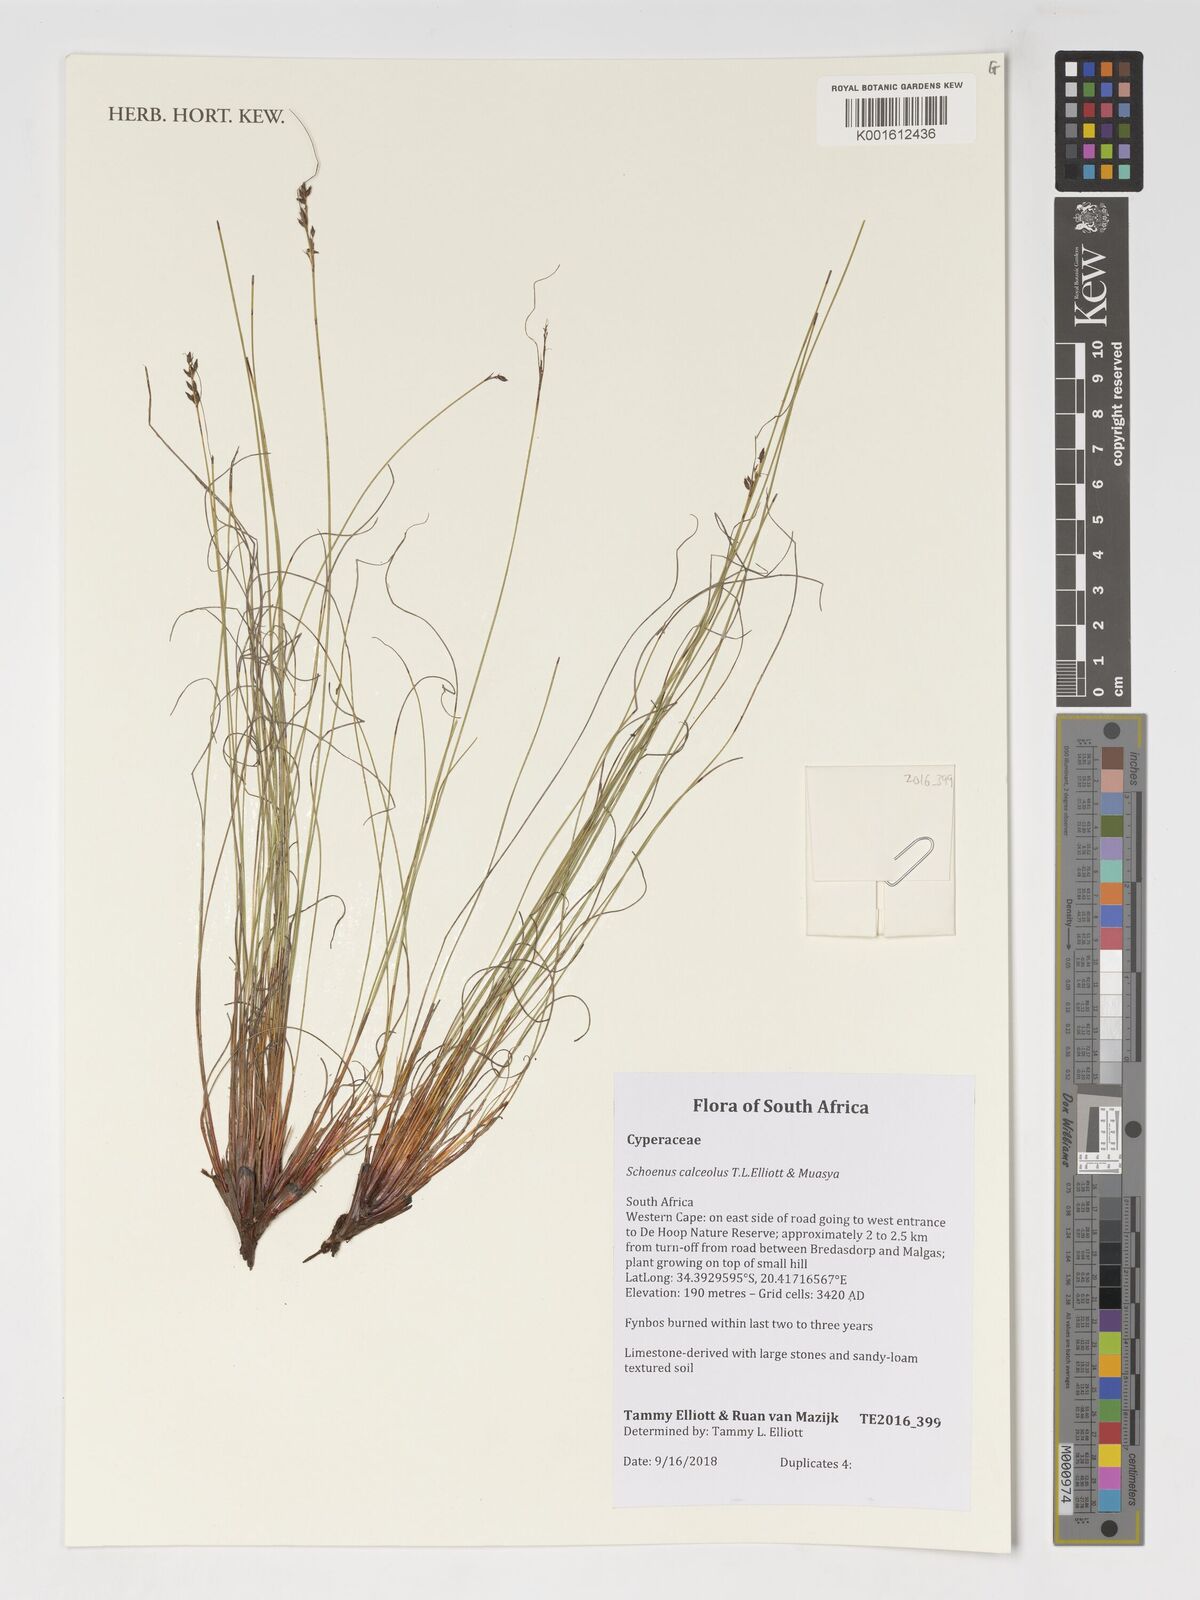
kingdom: Plantae
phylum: Tracheophyta
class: Liliopsida
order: Poales
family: Cyperaceae
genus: Schoenus
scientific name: Schoenus calceolus
